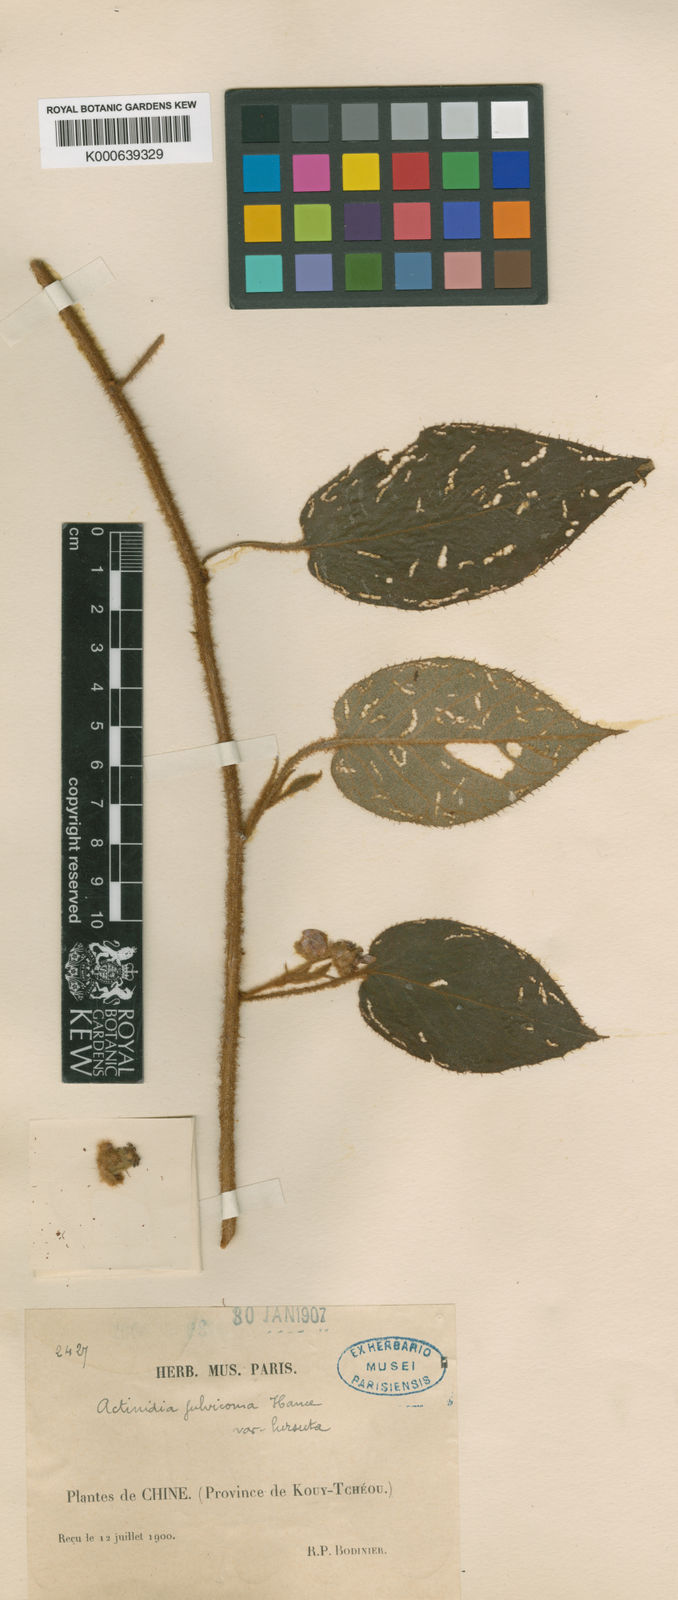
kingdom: Plantae
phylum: Tracheophyta
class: Magnoliopsida
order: Ericales
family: Actinidiaceae
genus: Actinidia
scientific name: Actinidia fulvicoma
